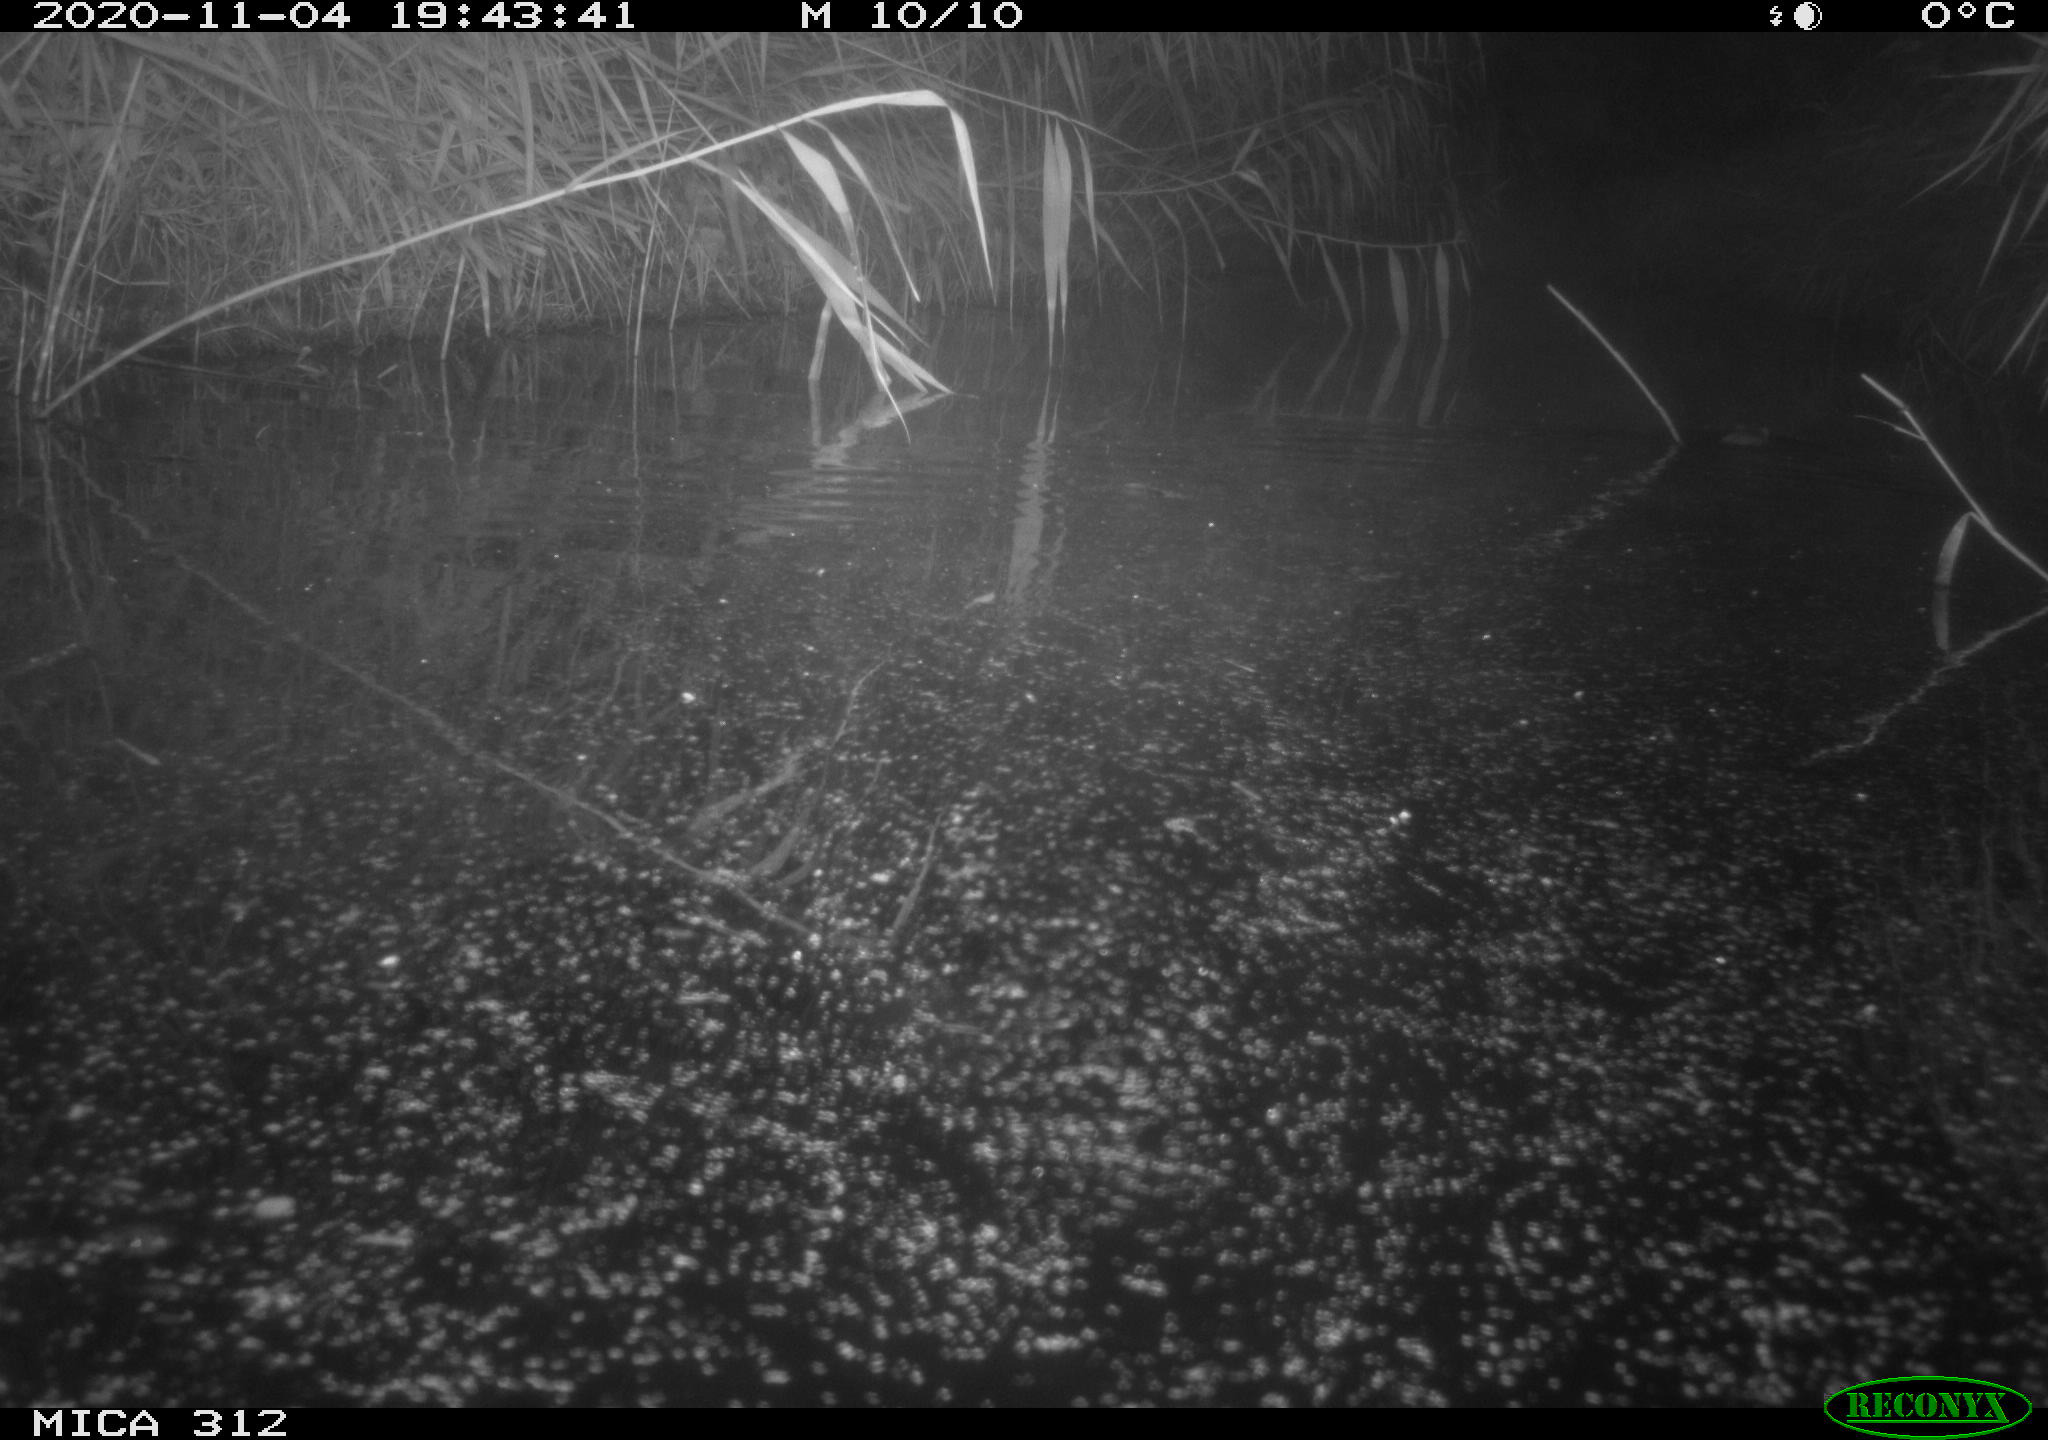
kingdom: Animalia
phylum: Chordata
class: Mammalia
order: Rodentia
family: Cricetidae
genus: Ondatra
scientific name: Ondatra zibethicus
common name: Muskrat
